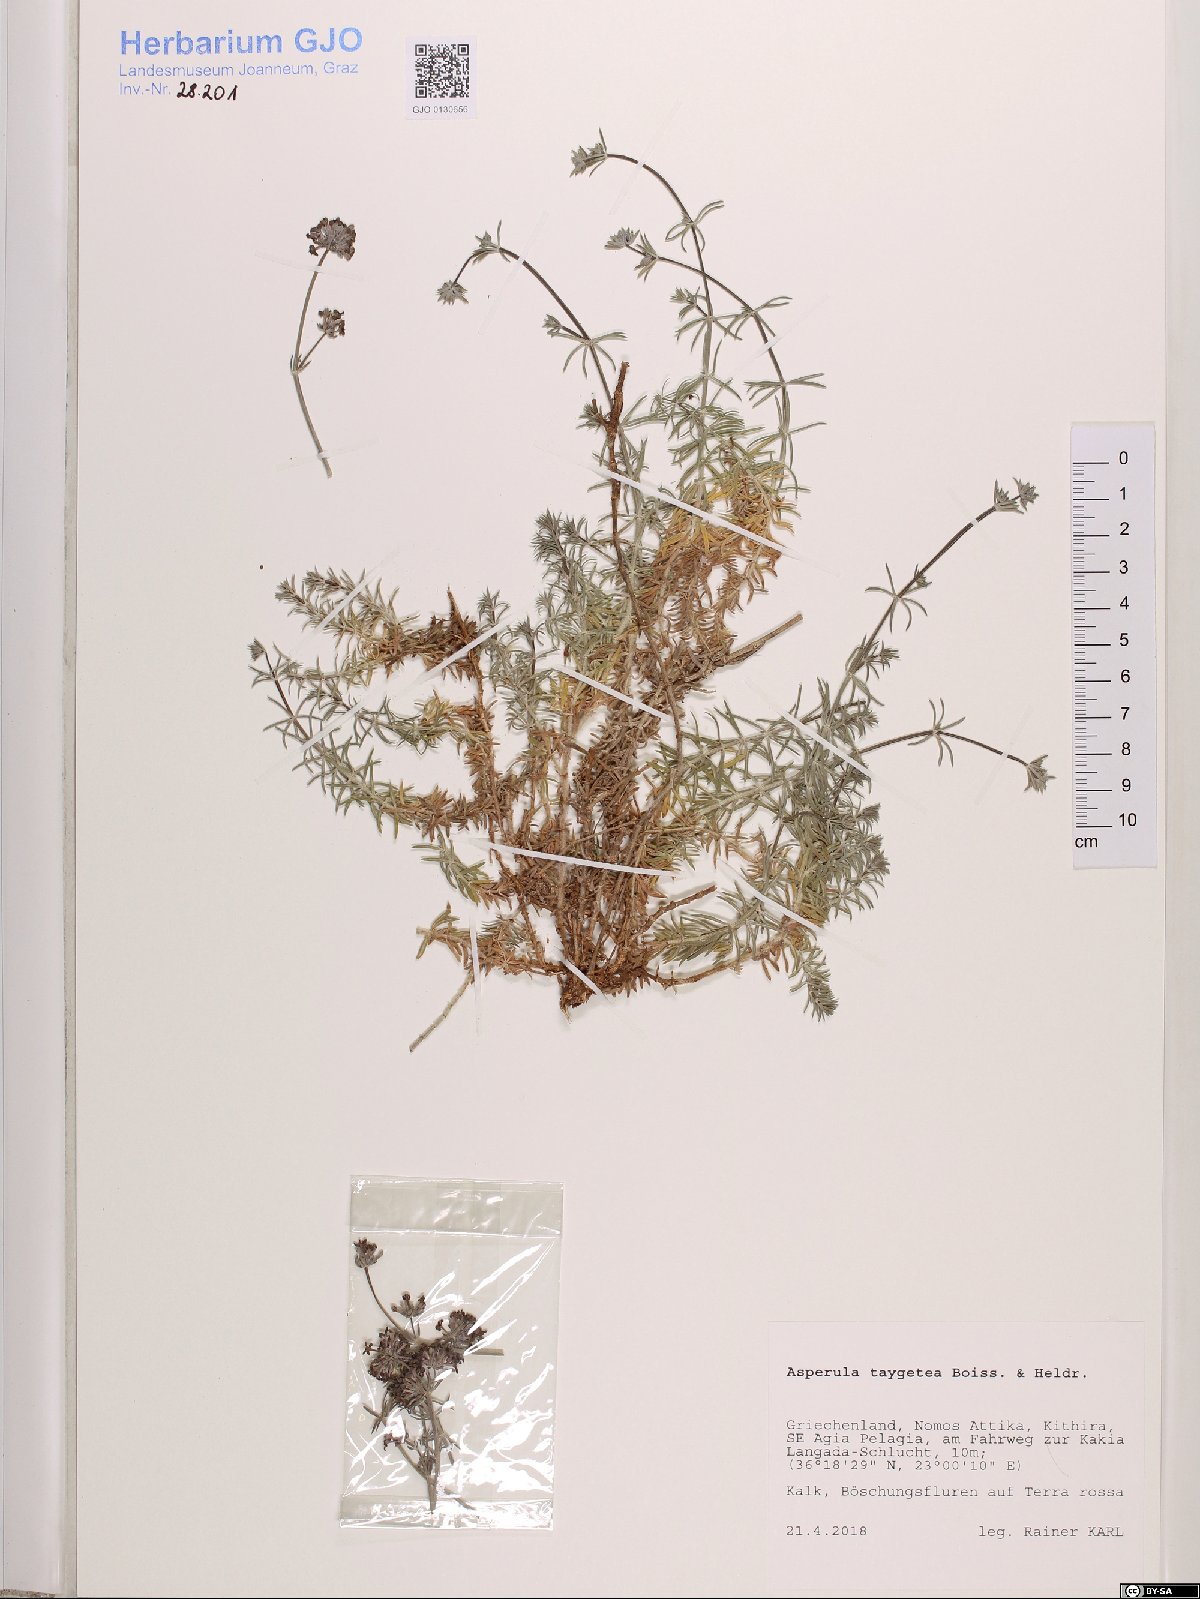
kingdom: Plantae
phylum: Tracheophyta
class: Magnoliopsida
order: Gentianales
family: Rubiaceae
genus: Hexaphylla
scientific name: Hexaphylla taygetea
